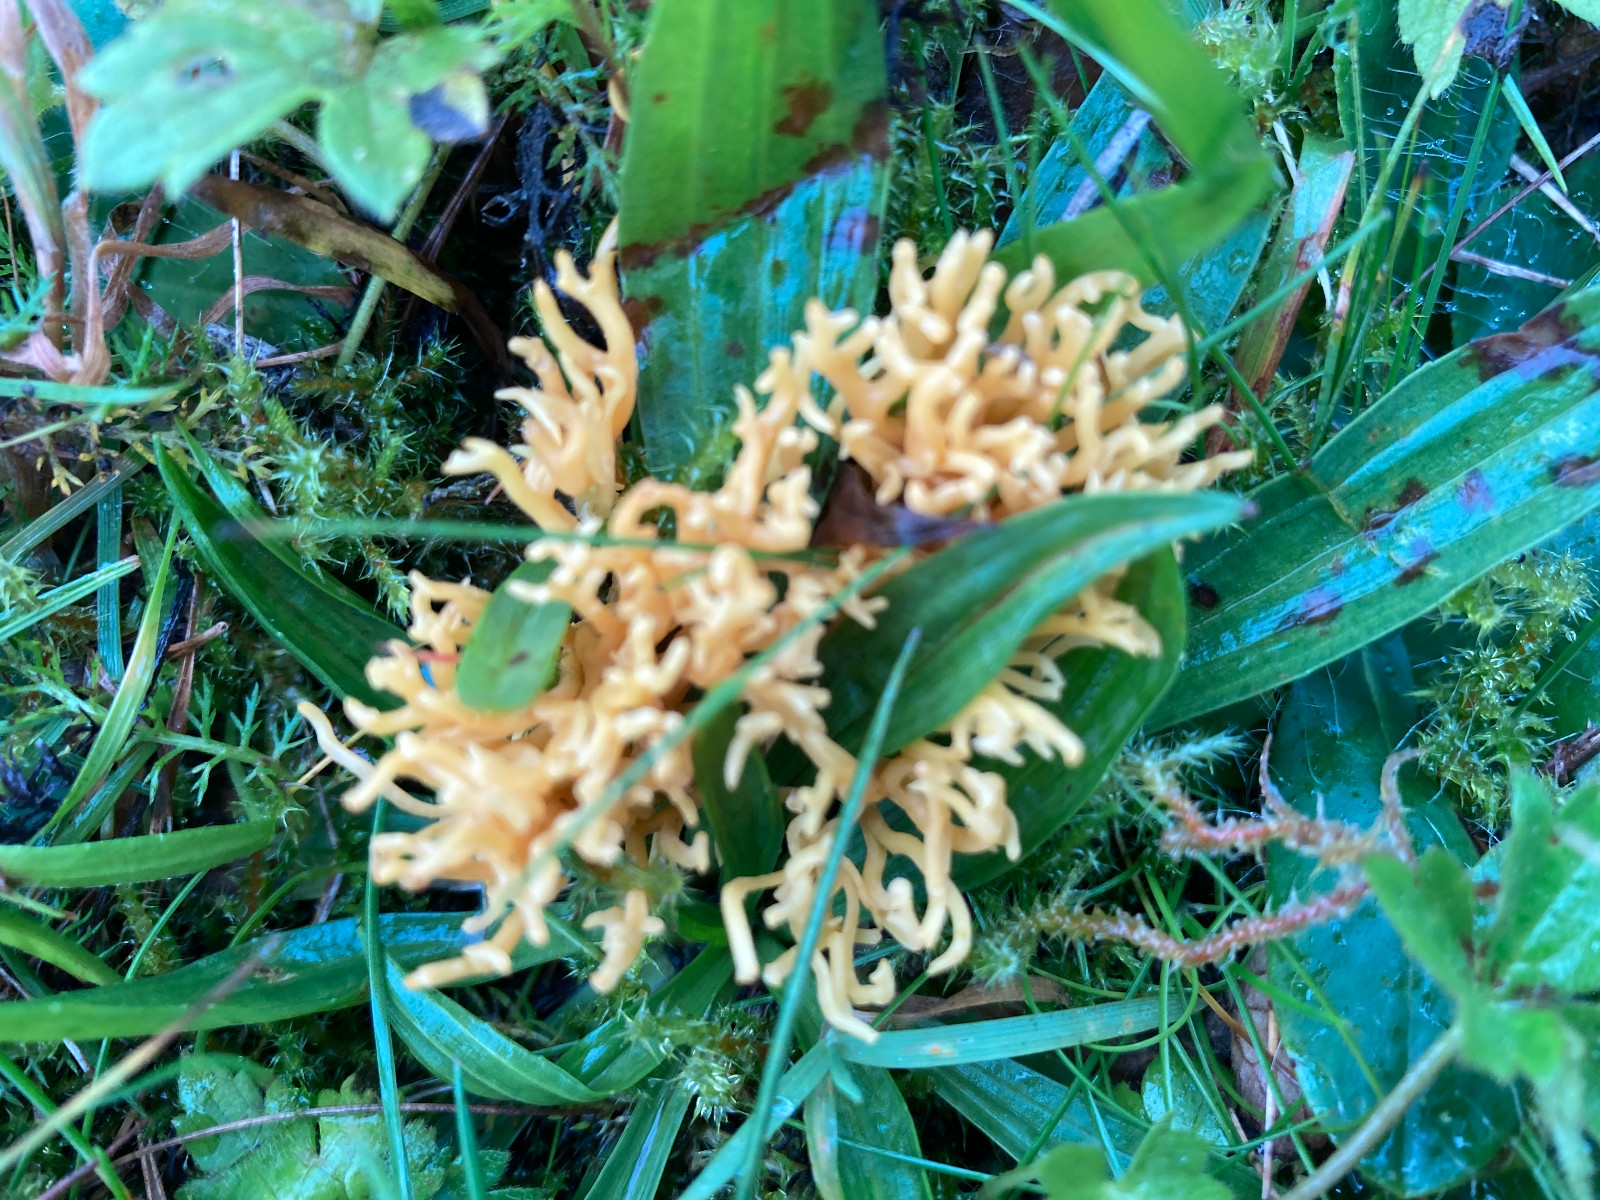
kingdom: Fungi
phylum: Basidiomycota
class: Agaricomycetes
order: Agaricales
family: Clavariaceae
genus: Clavulinopsis
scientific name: Clavulinopsis corniculata
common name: eng-køllesvamp
